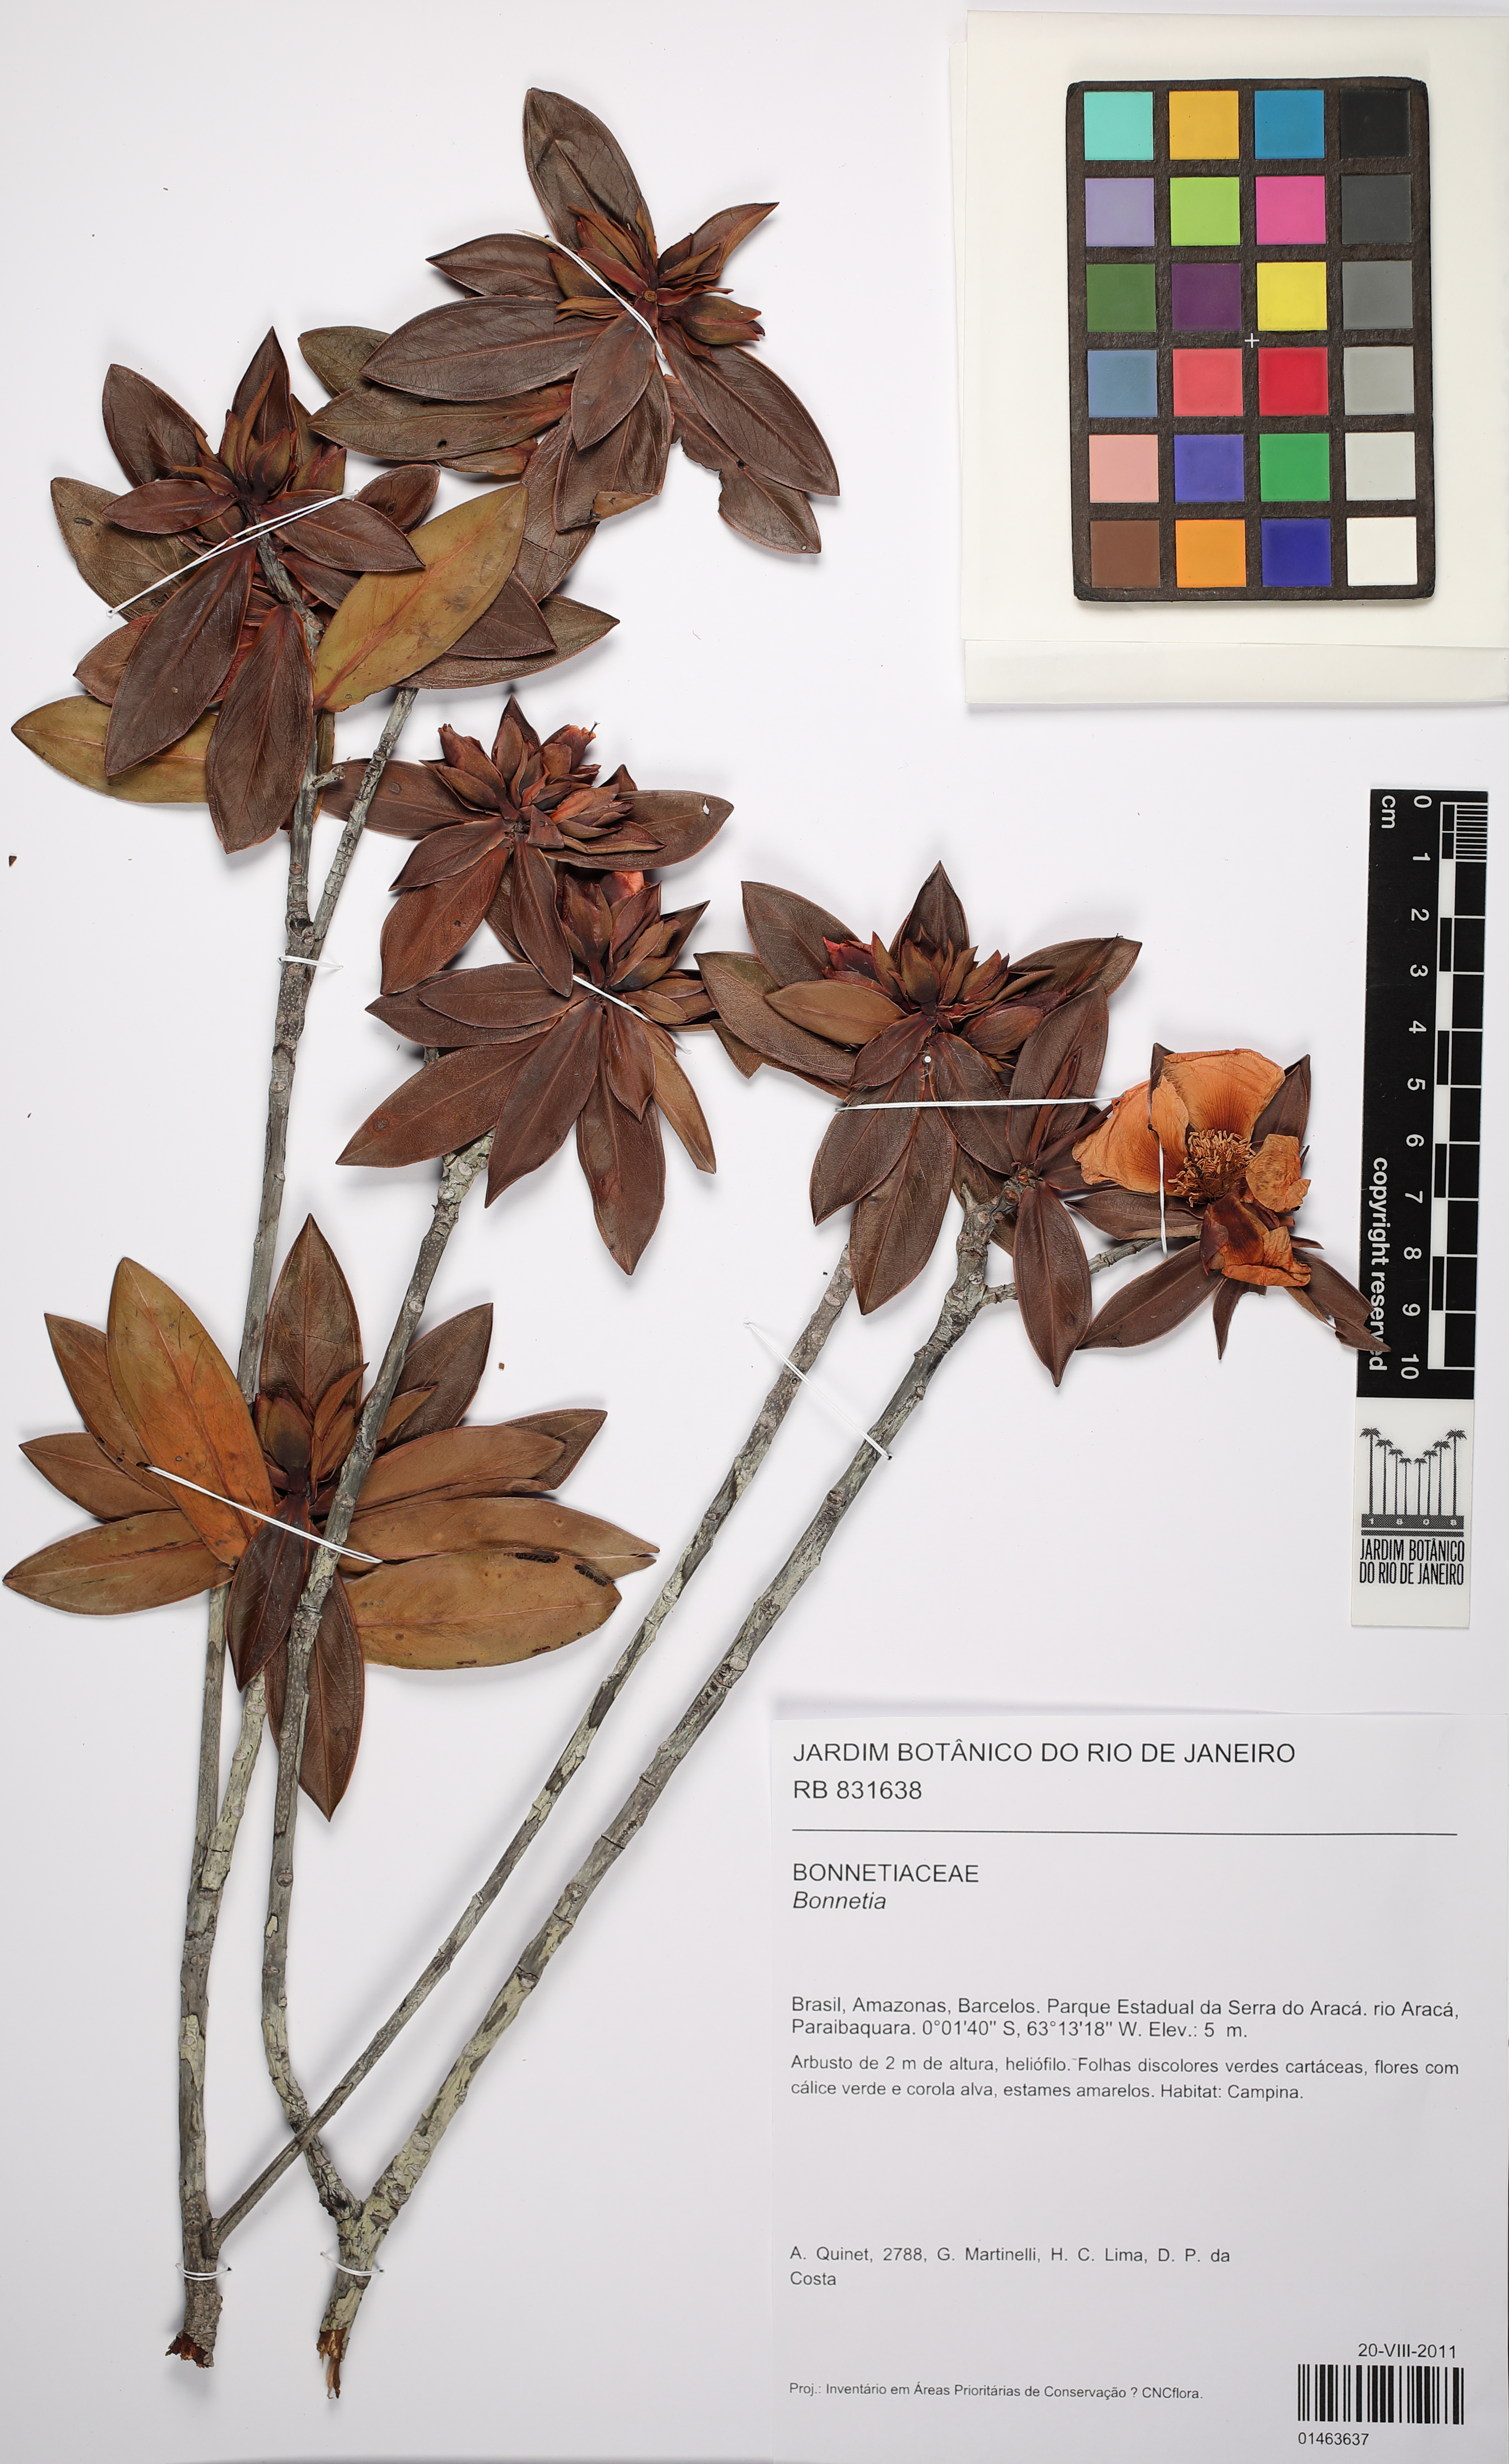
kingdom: Plantae
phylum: Tracheophyta
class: Magnoliopsida
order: Malpighiales
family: Bonnetiaceae
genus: Bonnetia
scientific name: Bonnetia
